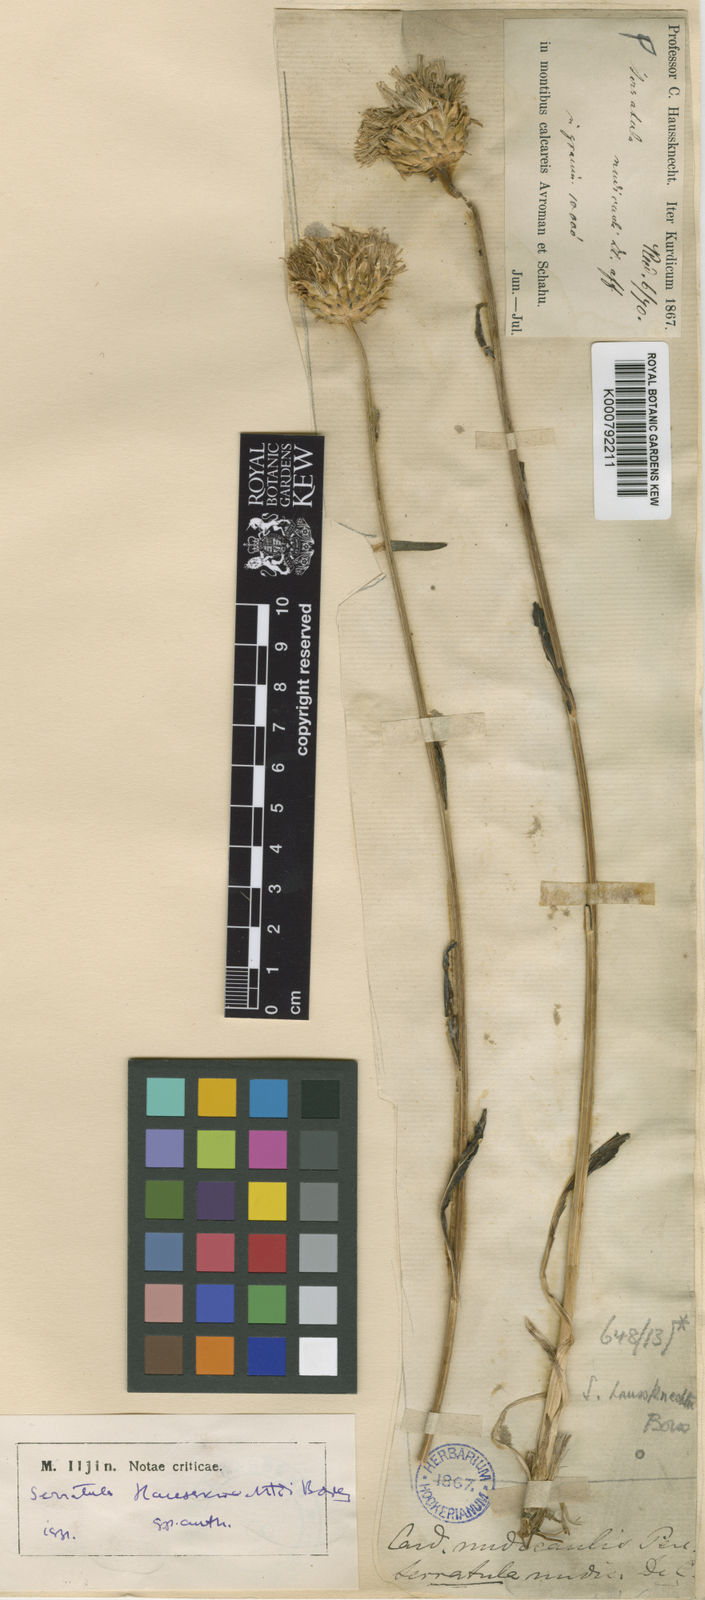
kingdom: Plantae
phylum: Tracheophyta
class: Magnoliopsida
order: Asterales
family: Asteraceae
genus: Klasea
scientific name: Klasea haussknechtii
